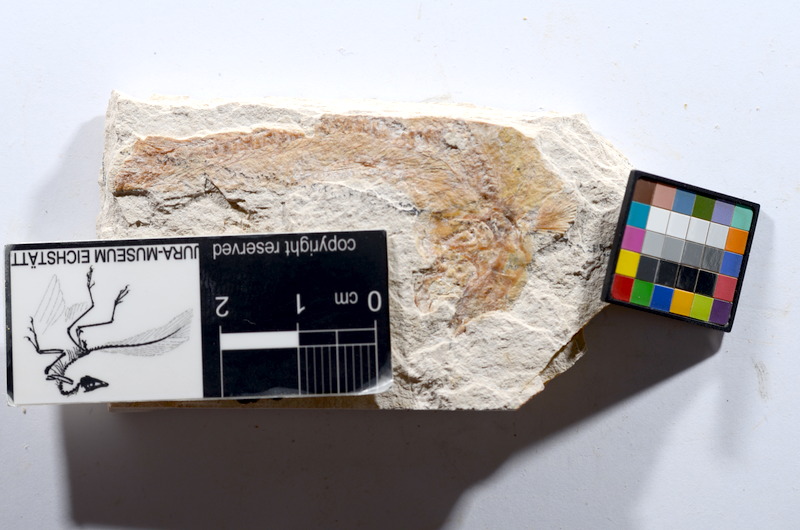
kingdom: Animalia
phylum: Chordata
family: Ascalaboidae
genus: Tharsis
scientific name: Tharsis dubius
